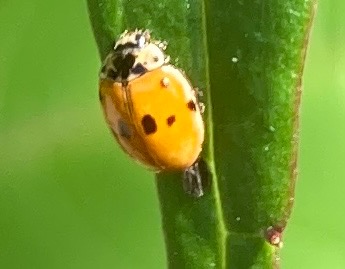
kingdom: Animalia
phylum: Arthropoda
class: Insecta
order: Coleoptera
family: Coccinellidae
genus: Adalia
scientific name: Adalia decempunctata
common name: Tiplettet mariehøne
